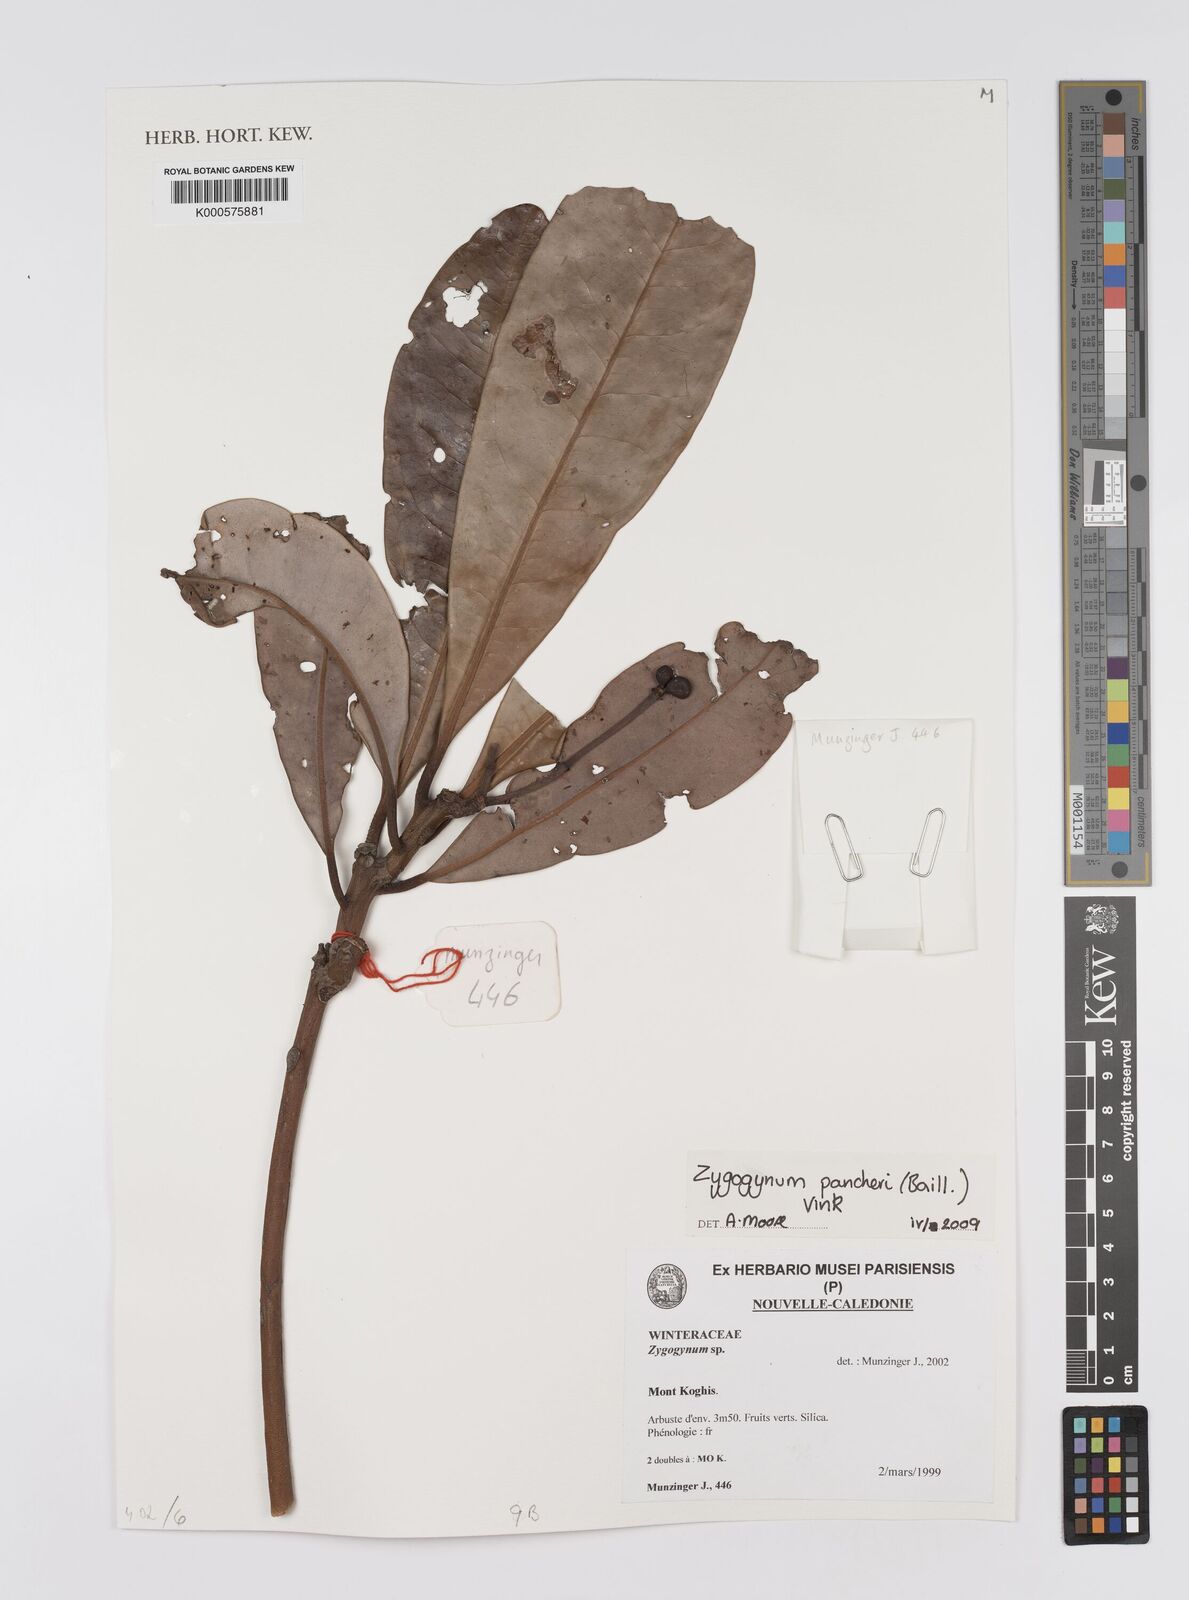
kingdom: Plantae
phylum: Tracheophyta
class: Magnoliopsida
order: Canellales
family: Winteraceae
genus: Zygogynum
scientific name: Zygogynum pancheri
